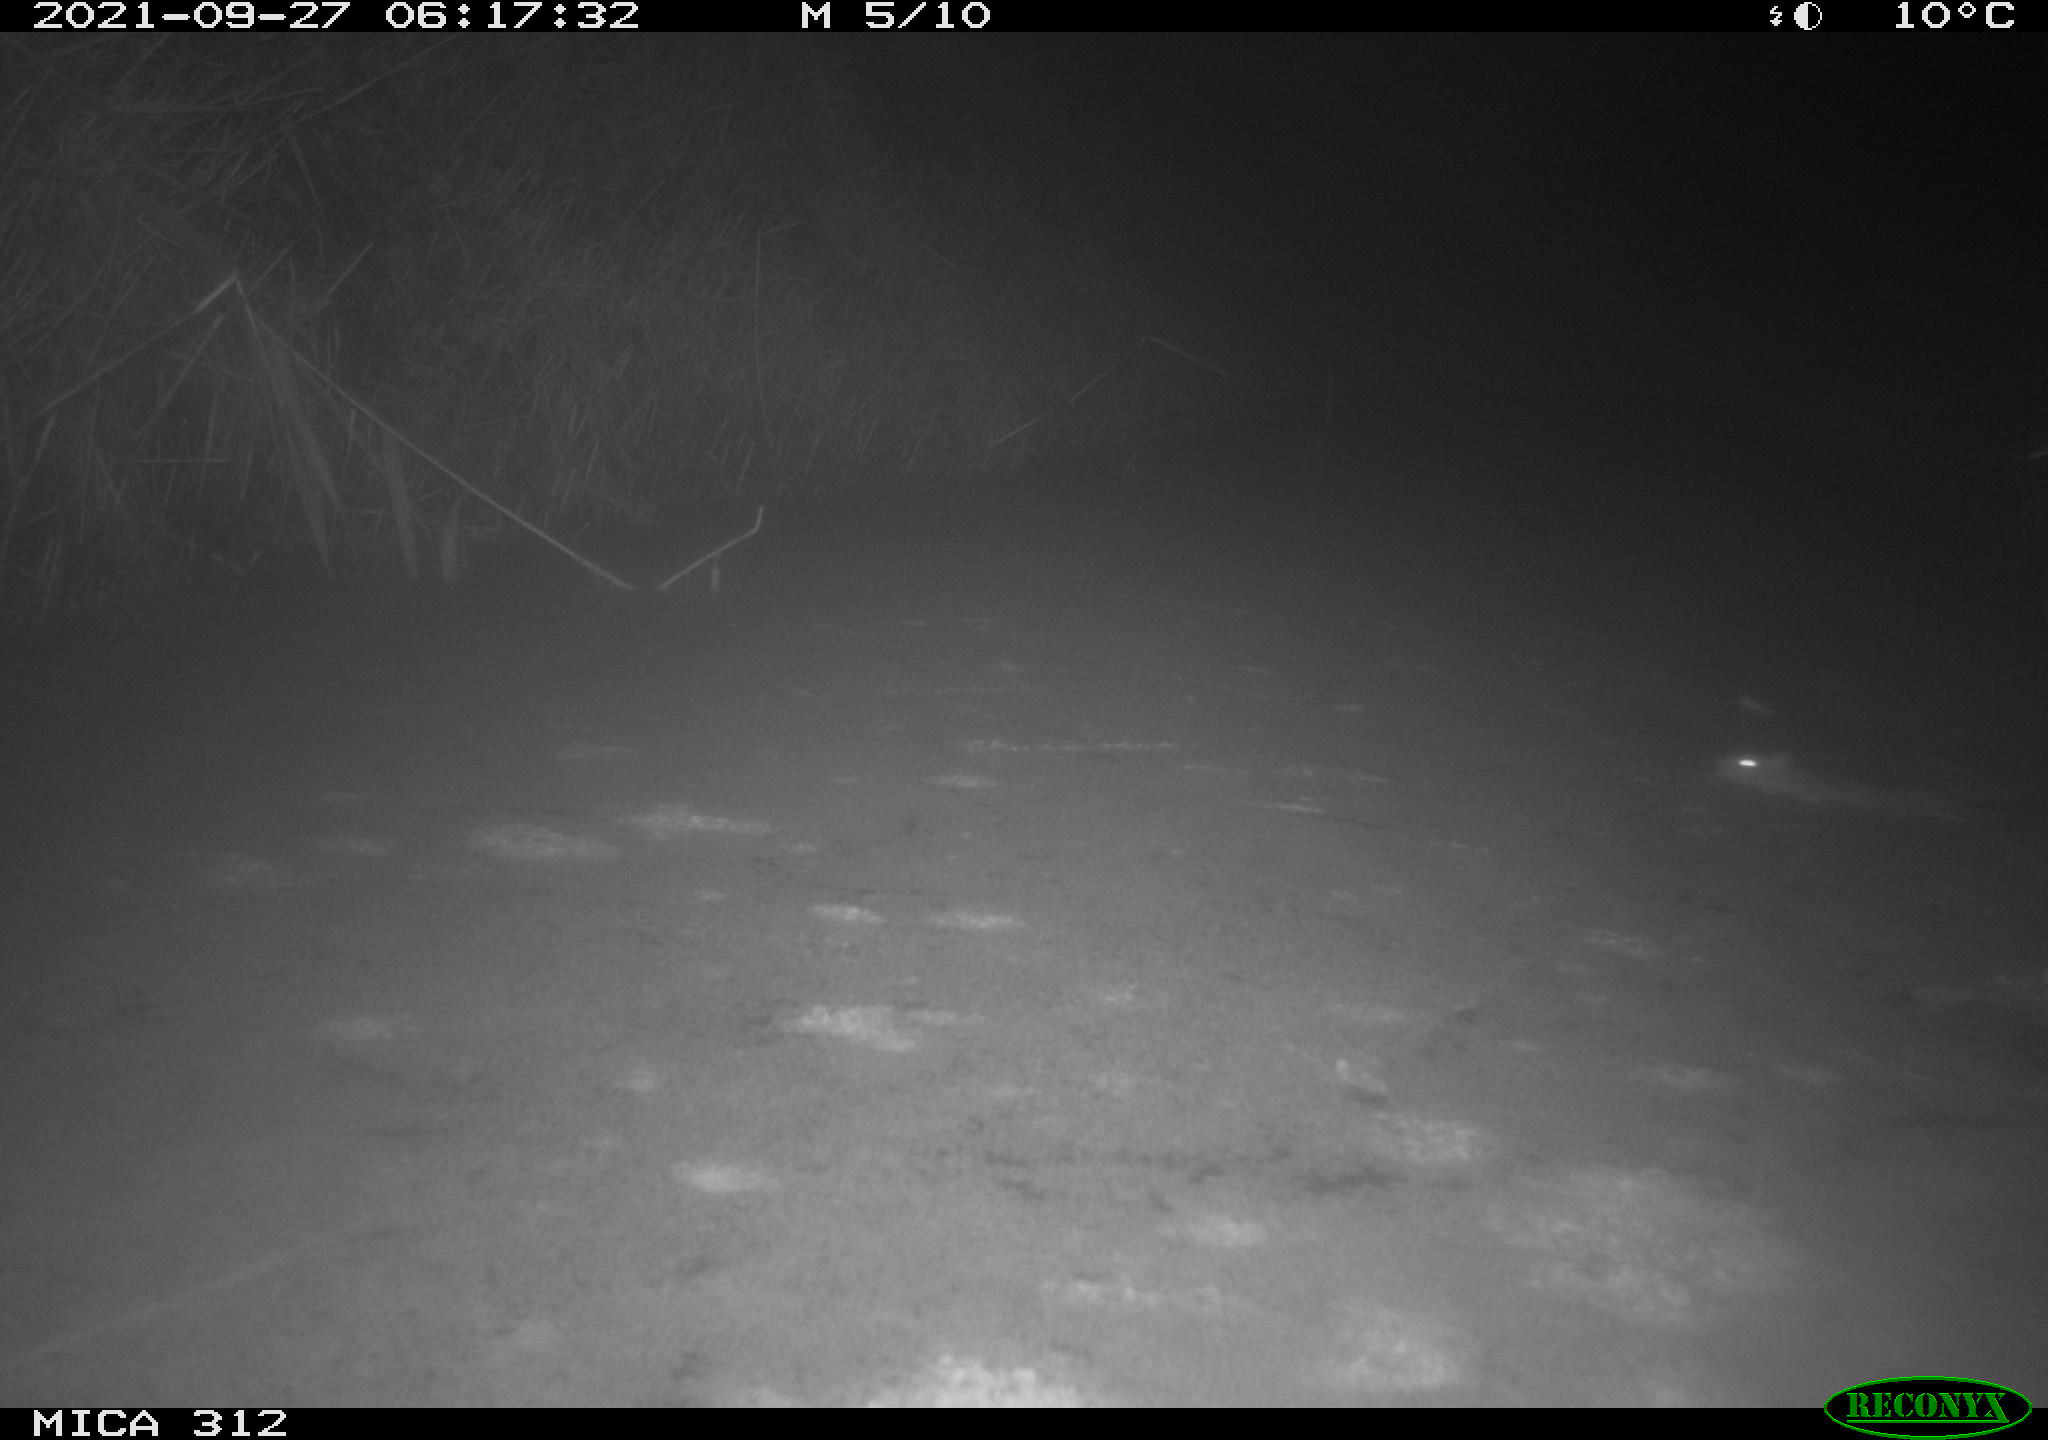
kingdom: Animalia
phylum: Chordata
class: Mammalia
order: Rodentia
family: Muridae
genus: Rattus
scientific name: Rattus norvegicus
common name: Brown rat
